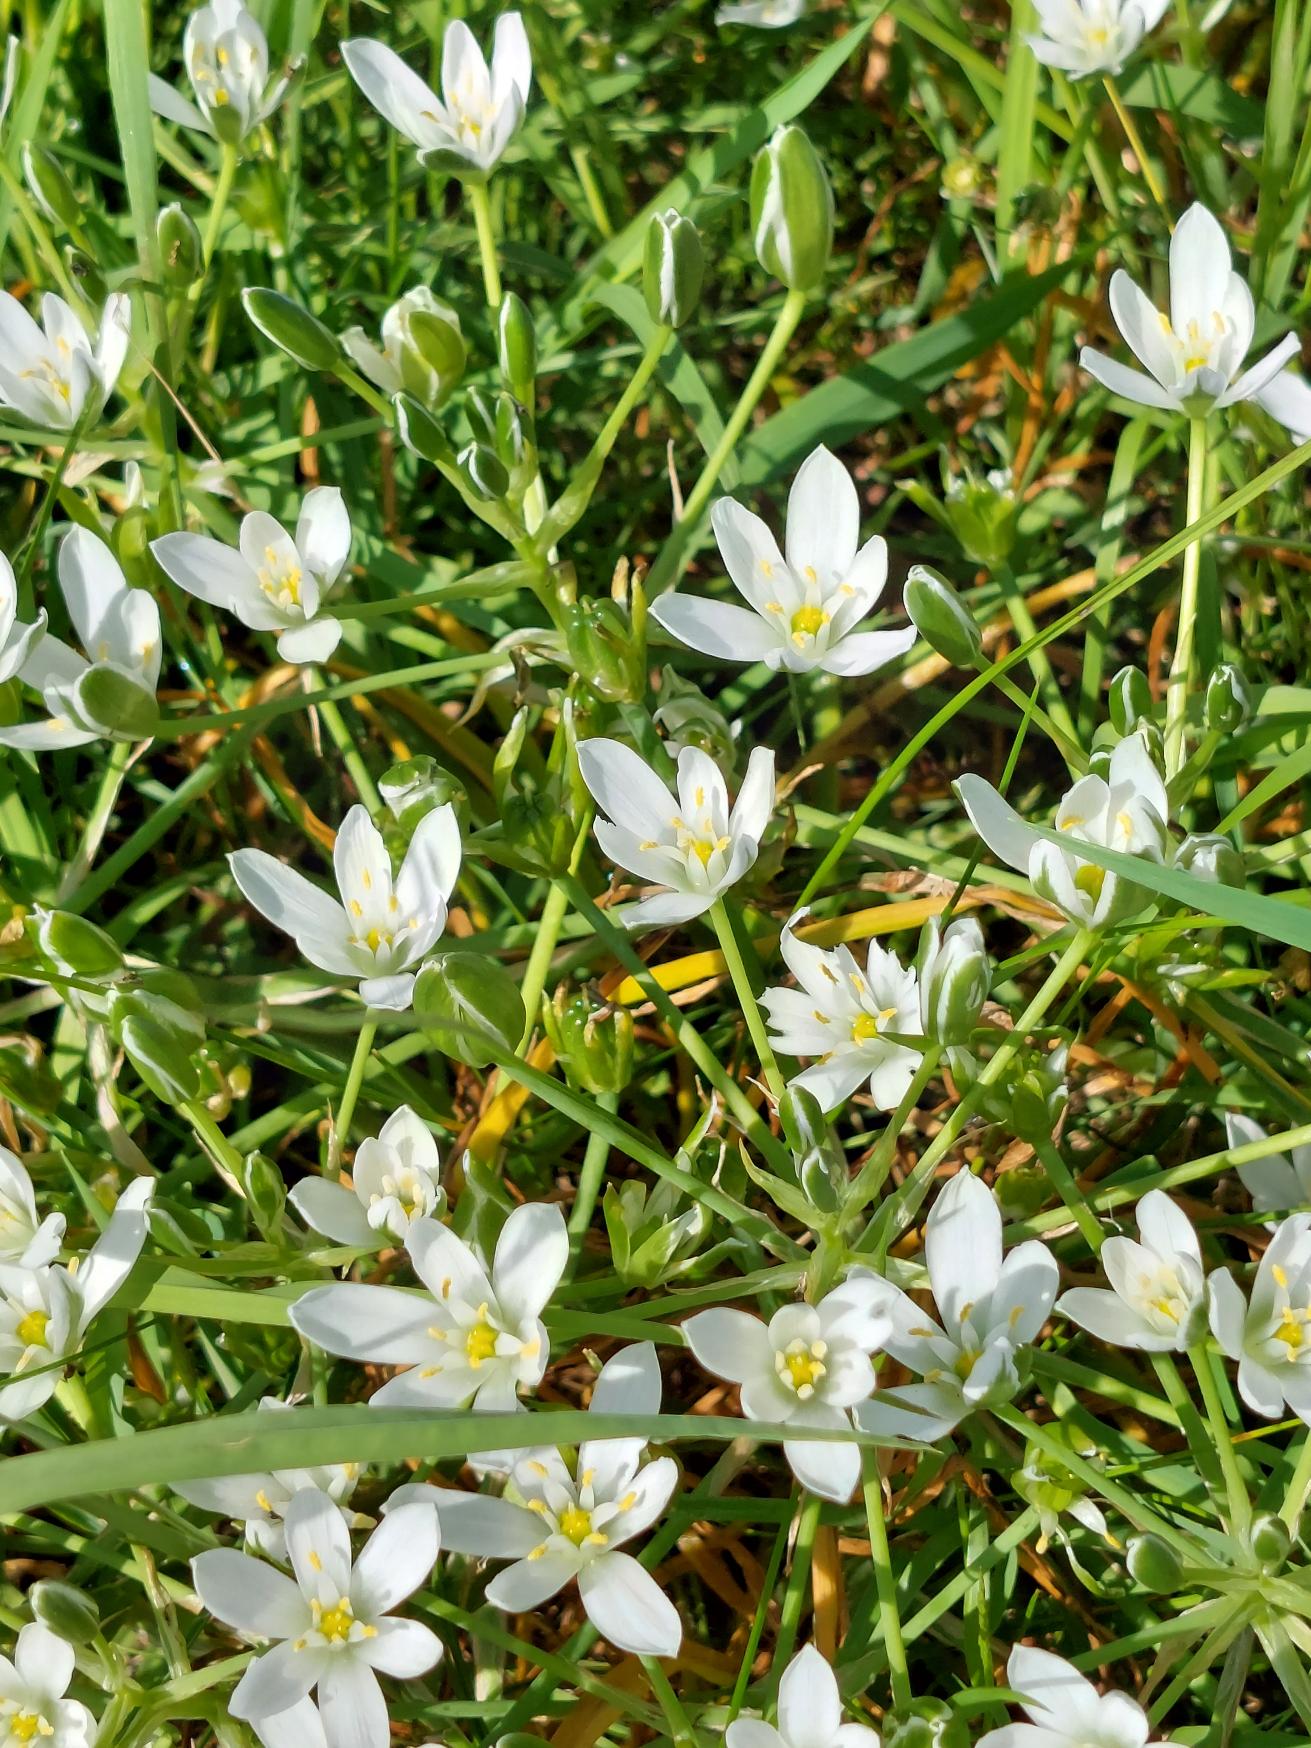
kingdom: Plantae
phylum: Tracheophyta
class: Liliopsida
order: Asparagales
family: Asparagaceae
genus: Ornithogalum
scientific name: Ornithogalum umbellatum
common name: Kost-fuglemælk
